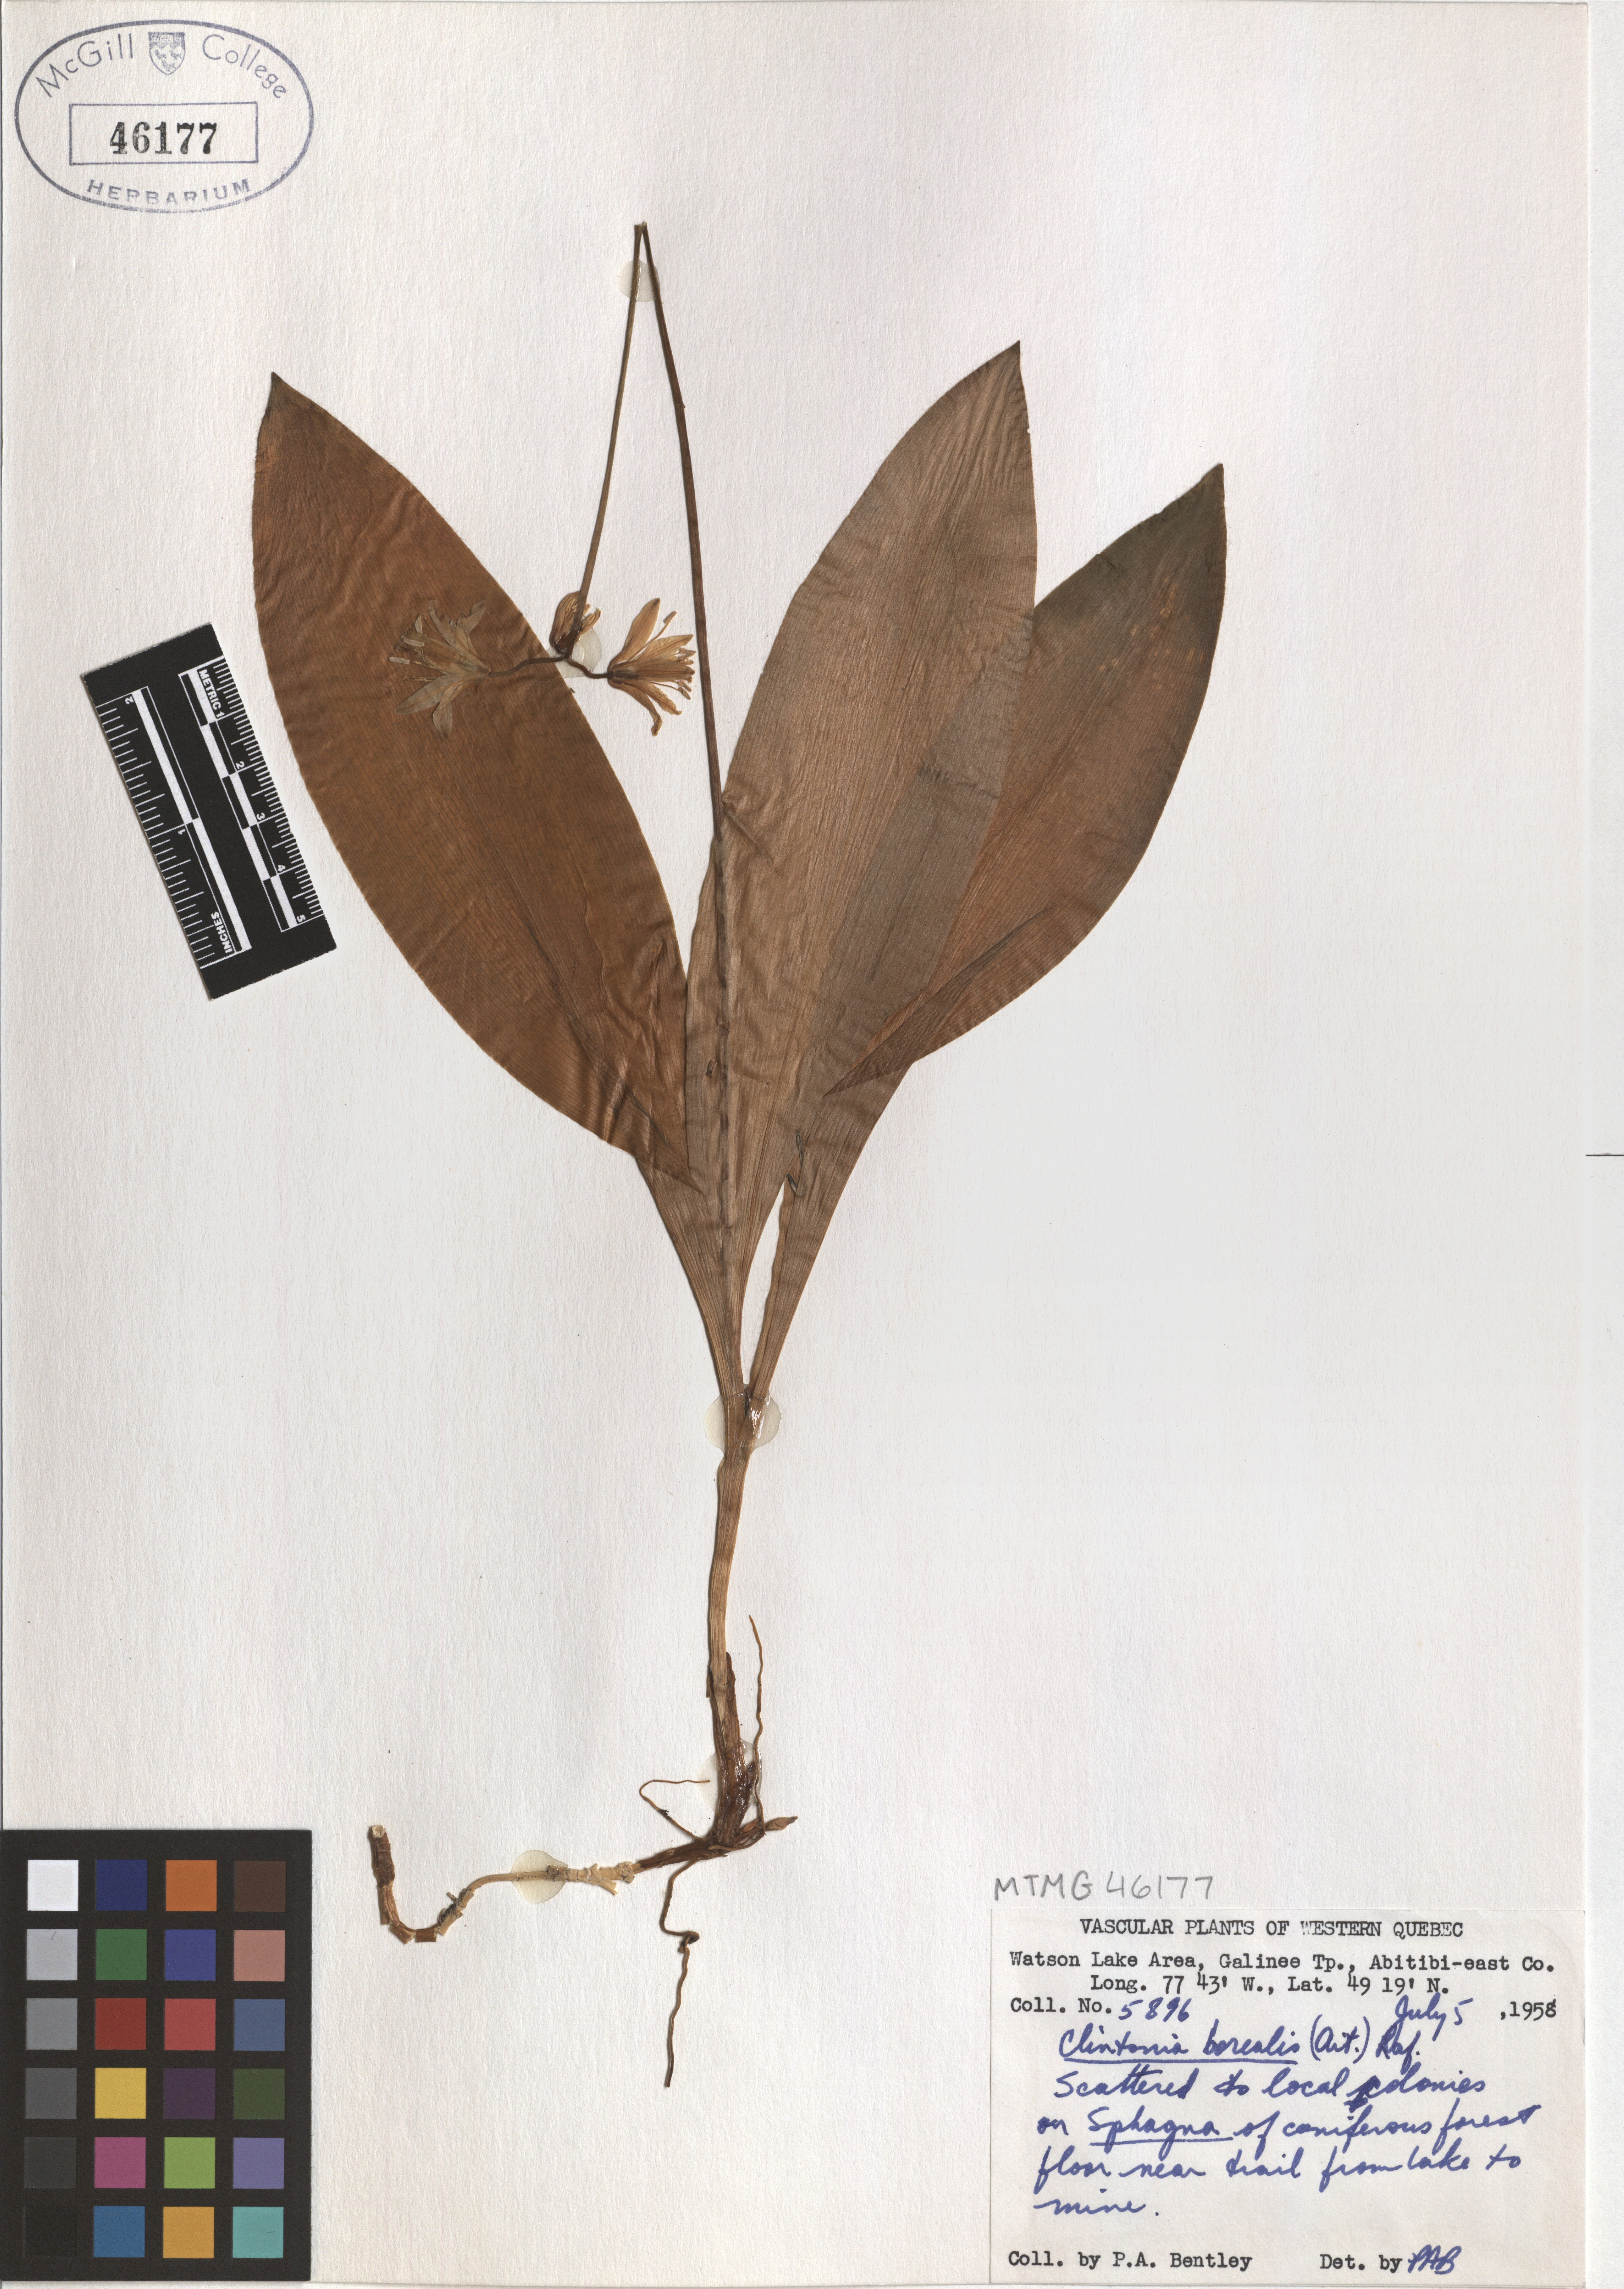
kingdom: Plantae
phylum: Tracheophyta
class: Liliopsida
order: Liliales
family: Liliaceae
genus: Clintonia
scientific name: Clintonia borealis
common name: Yellow clintonia
